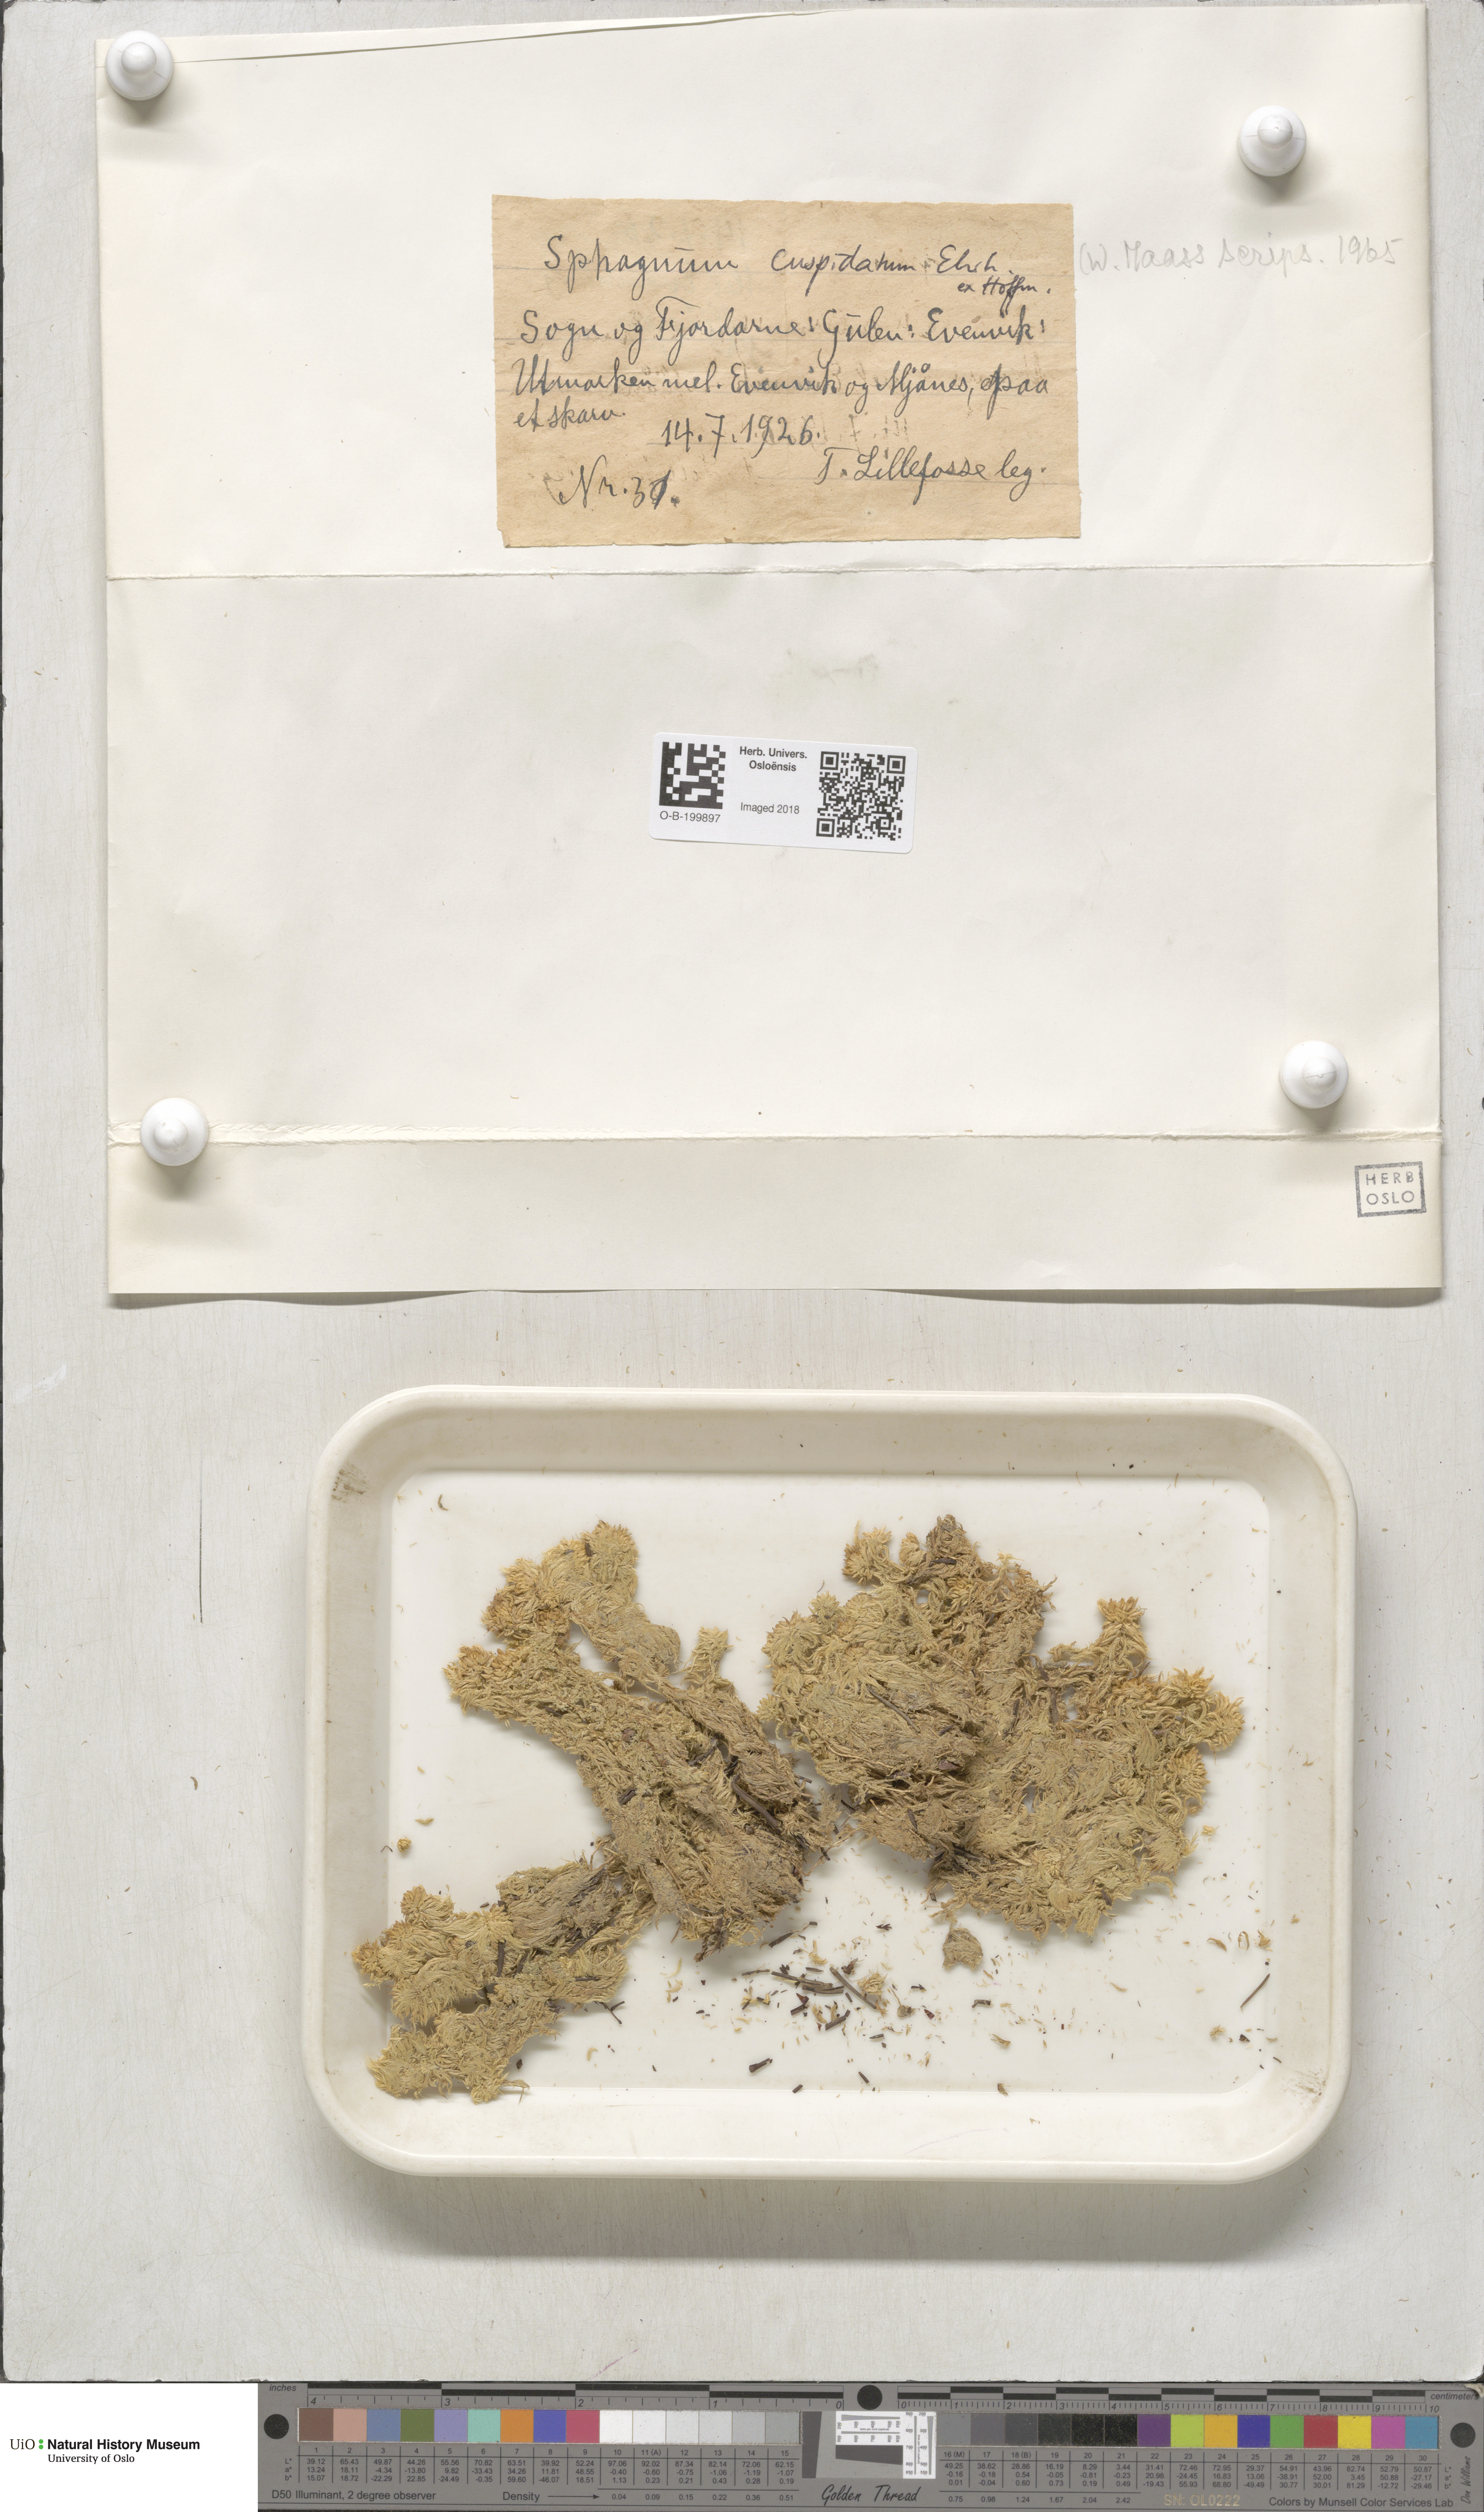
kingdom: Plantae
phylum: Bryophyta
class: Sphagnopsida
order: Sphagnales
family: Sphagnaceae
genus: Sphagnum
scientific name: Sphagnum cuspidatum
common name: Feathery peat moss
